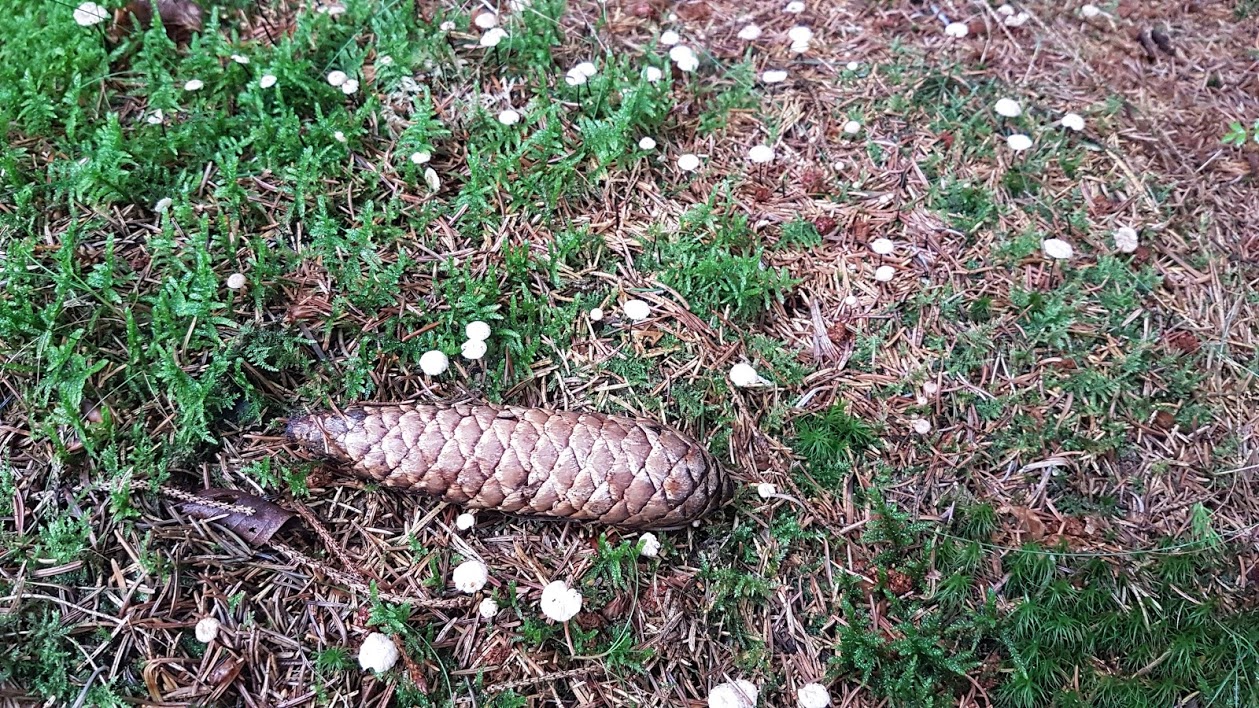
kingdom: Fungi
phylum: Basidiomycota
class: Agaricomycetes
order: Agaricales
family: Omphalotaceae
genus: Paragymnopus
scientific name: Paragymnopus perforans
